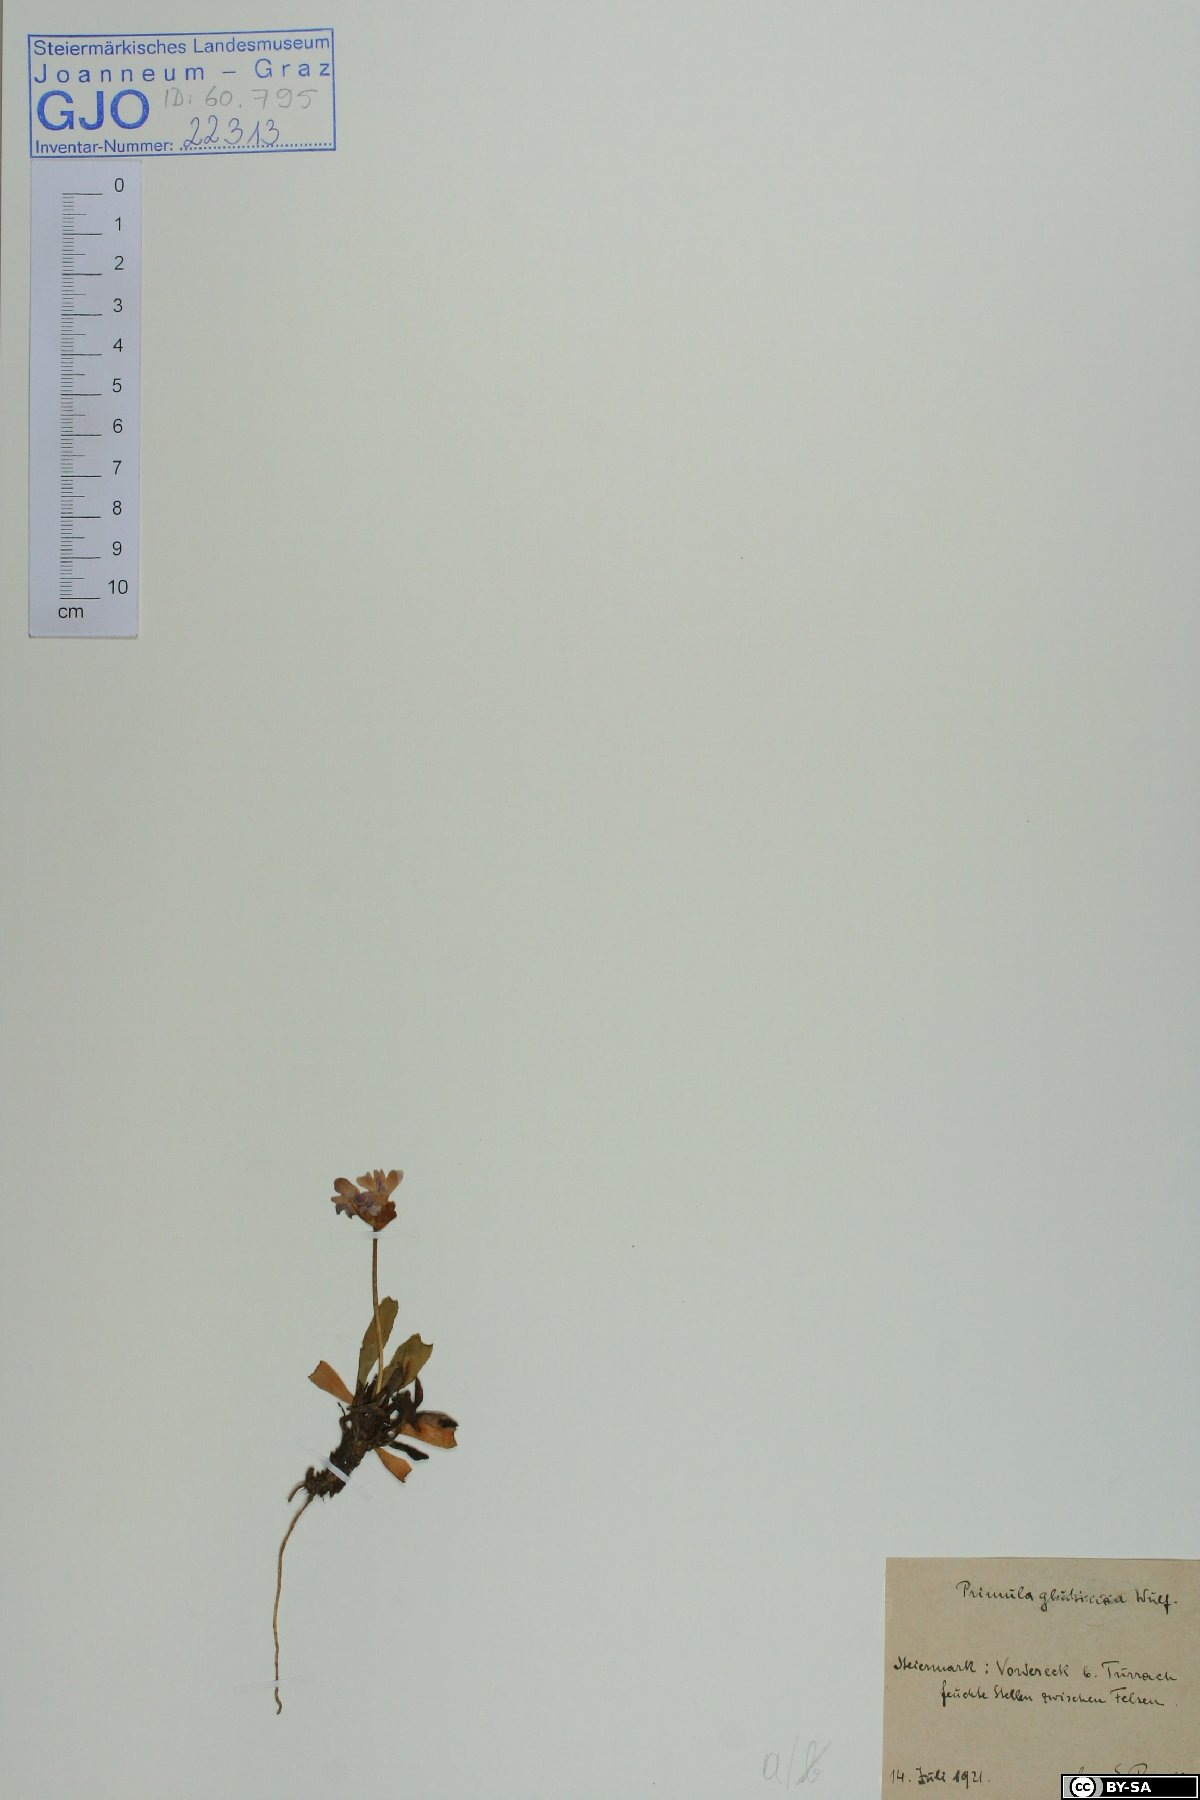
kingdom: Plantae
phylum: Tracheophyta
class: Magnoliopsida
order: Ericales
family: Primulaceae
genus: Primula
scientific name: Primula glutinosa
